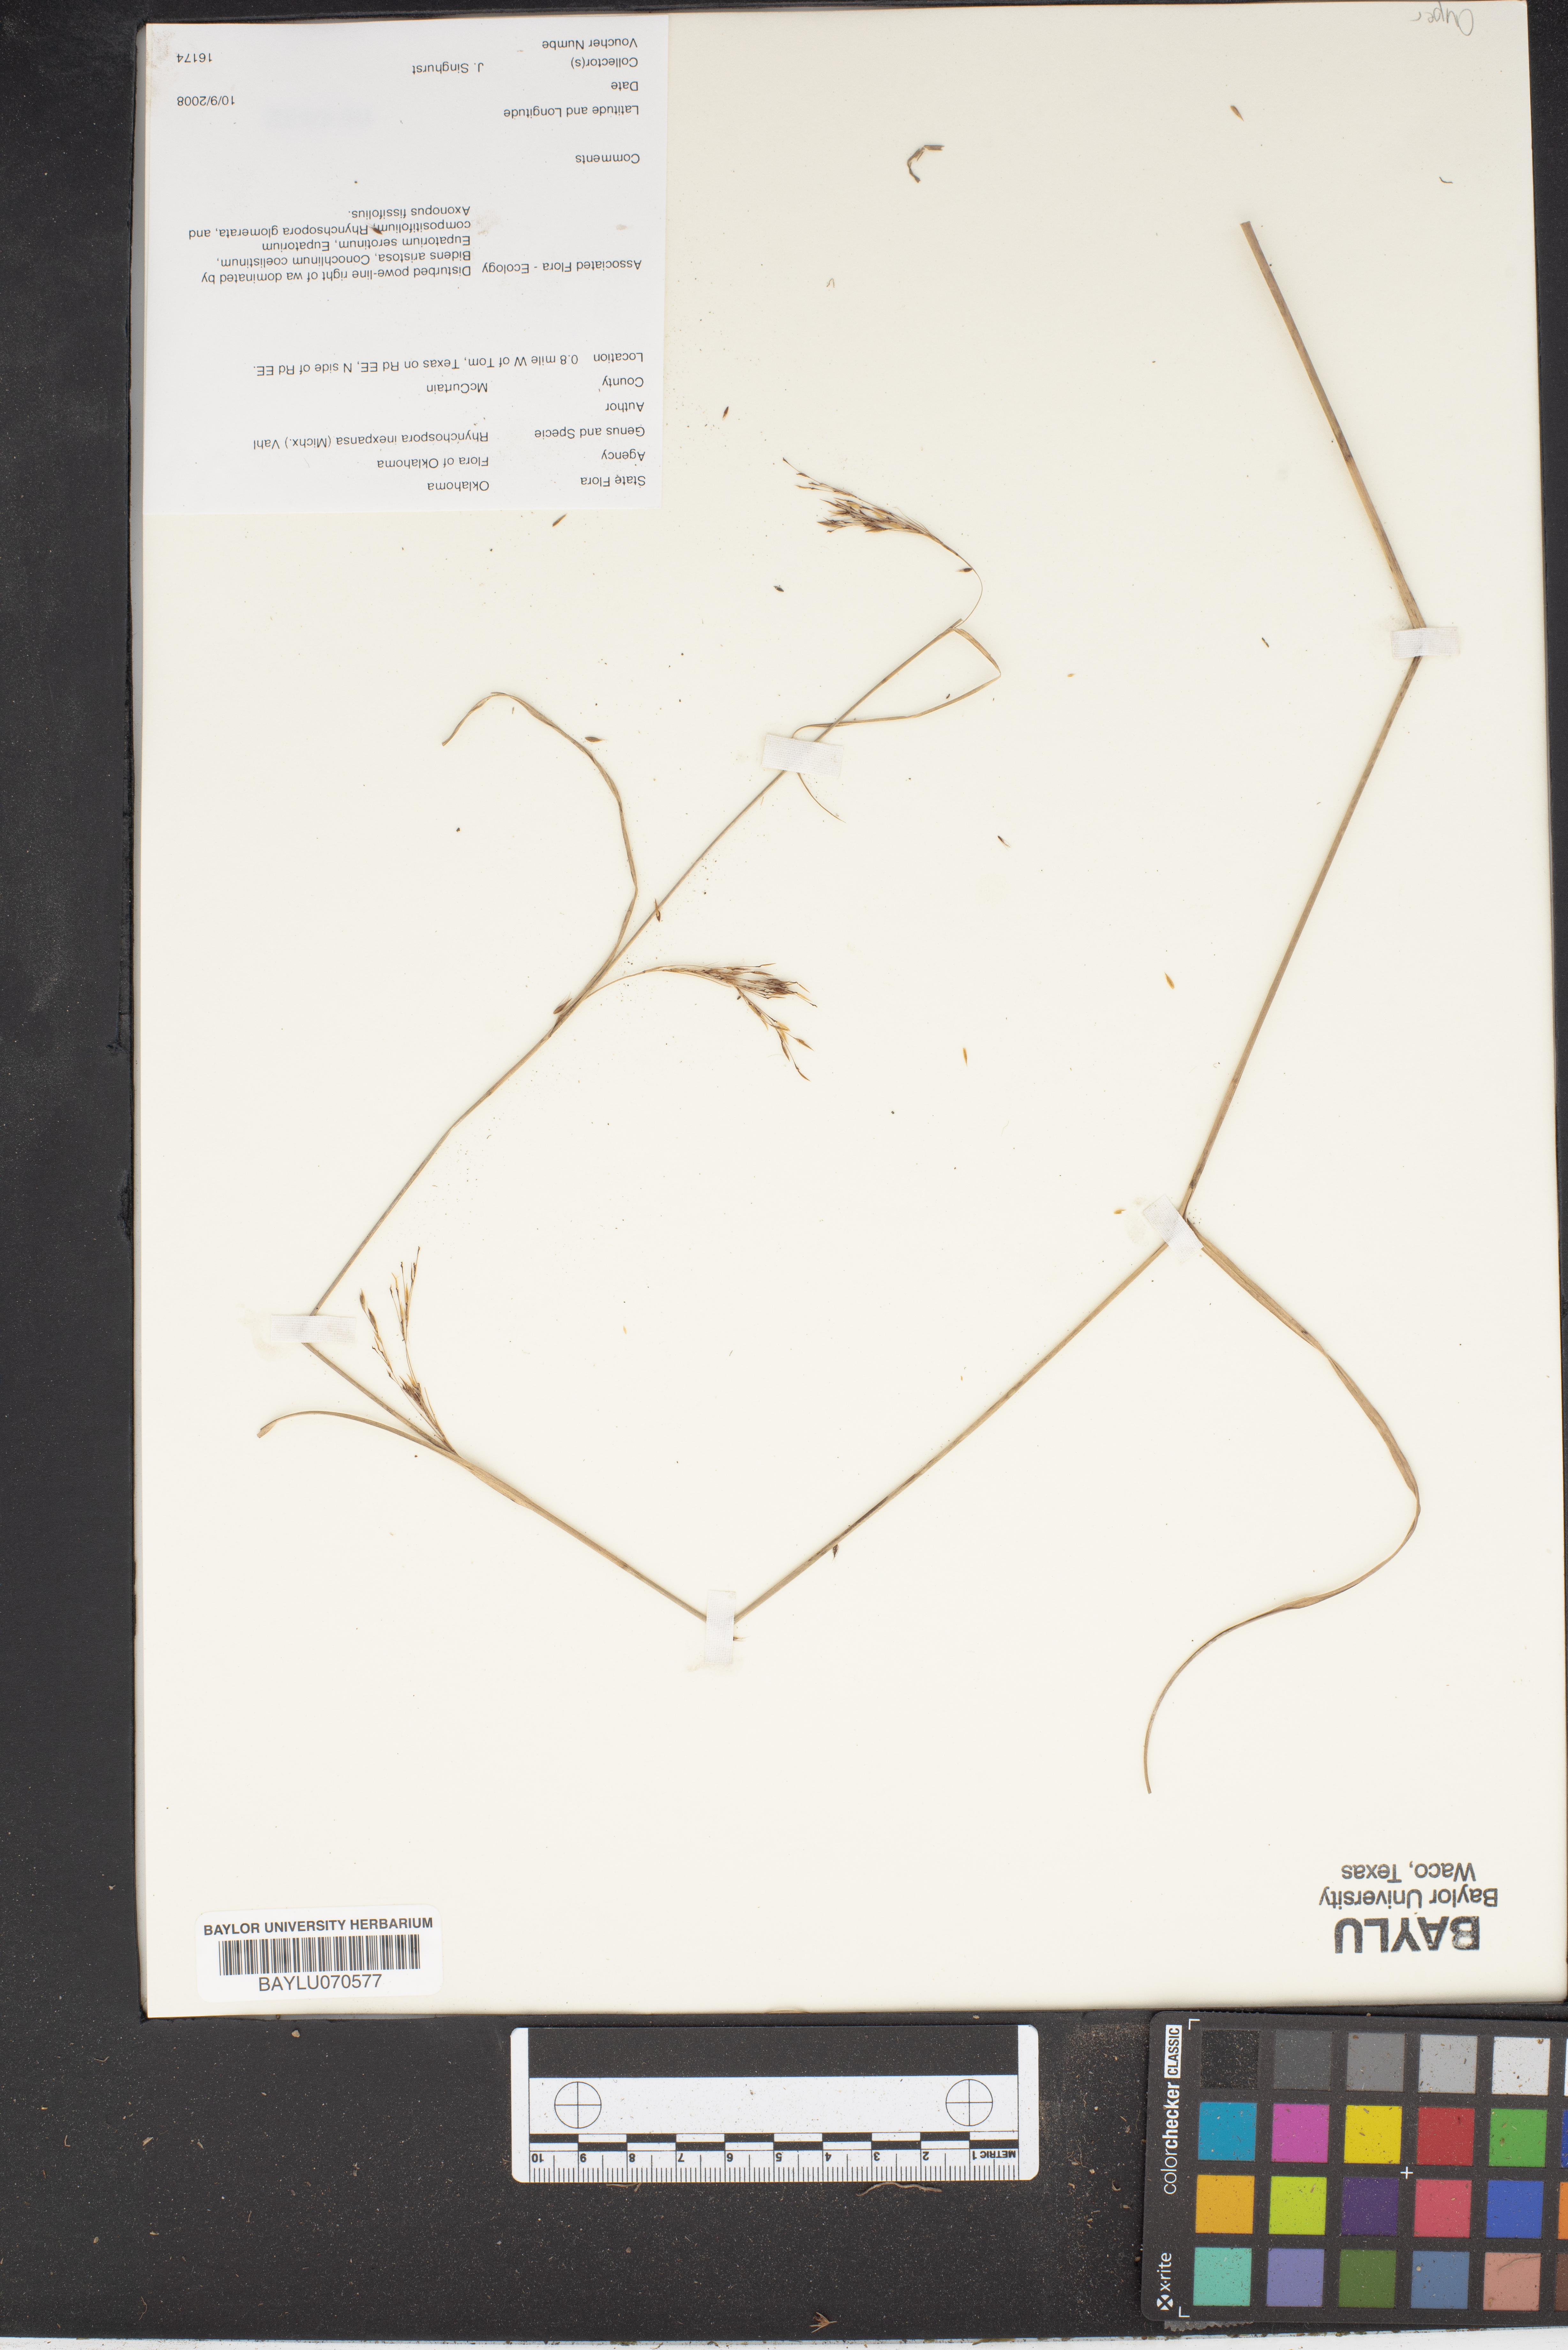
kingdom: Plantae
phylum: Tracheophyta
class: Liliopsida
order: Poales
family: Cyperaceae
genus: Rhynchospora
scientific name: Rhynchospora inexpansa
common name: Nodding beaksedge
